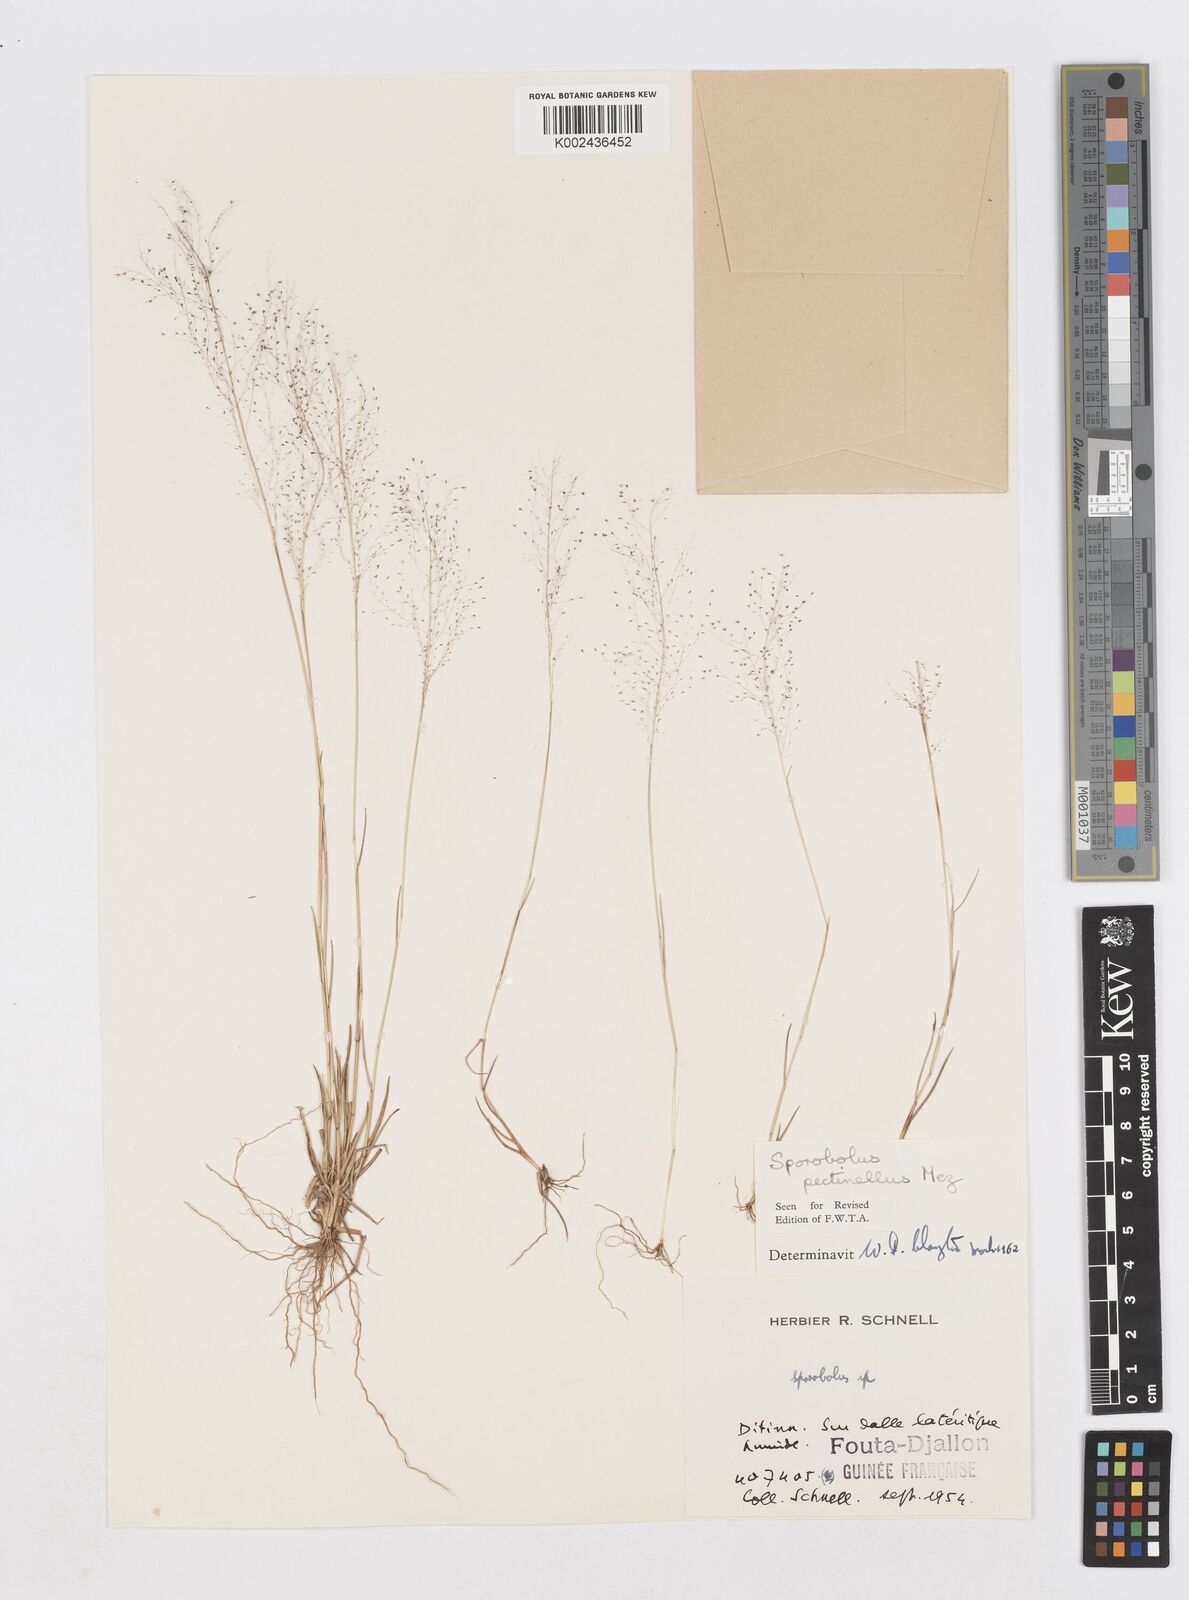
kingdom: Plantae
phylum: Tracheophyta
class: Liliopsida
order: Poales
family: Poaceae
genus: Sporobolus
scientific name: Sporobolus pectinellus
